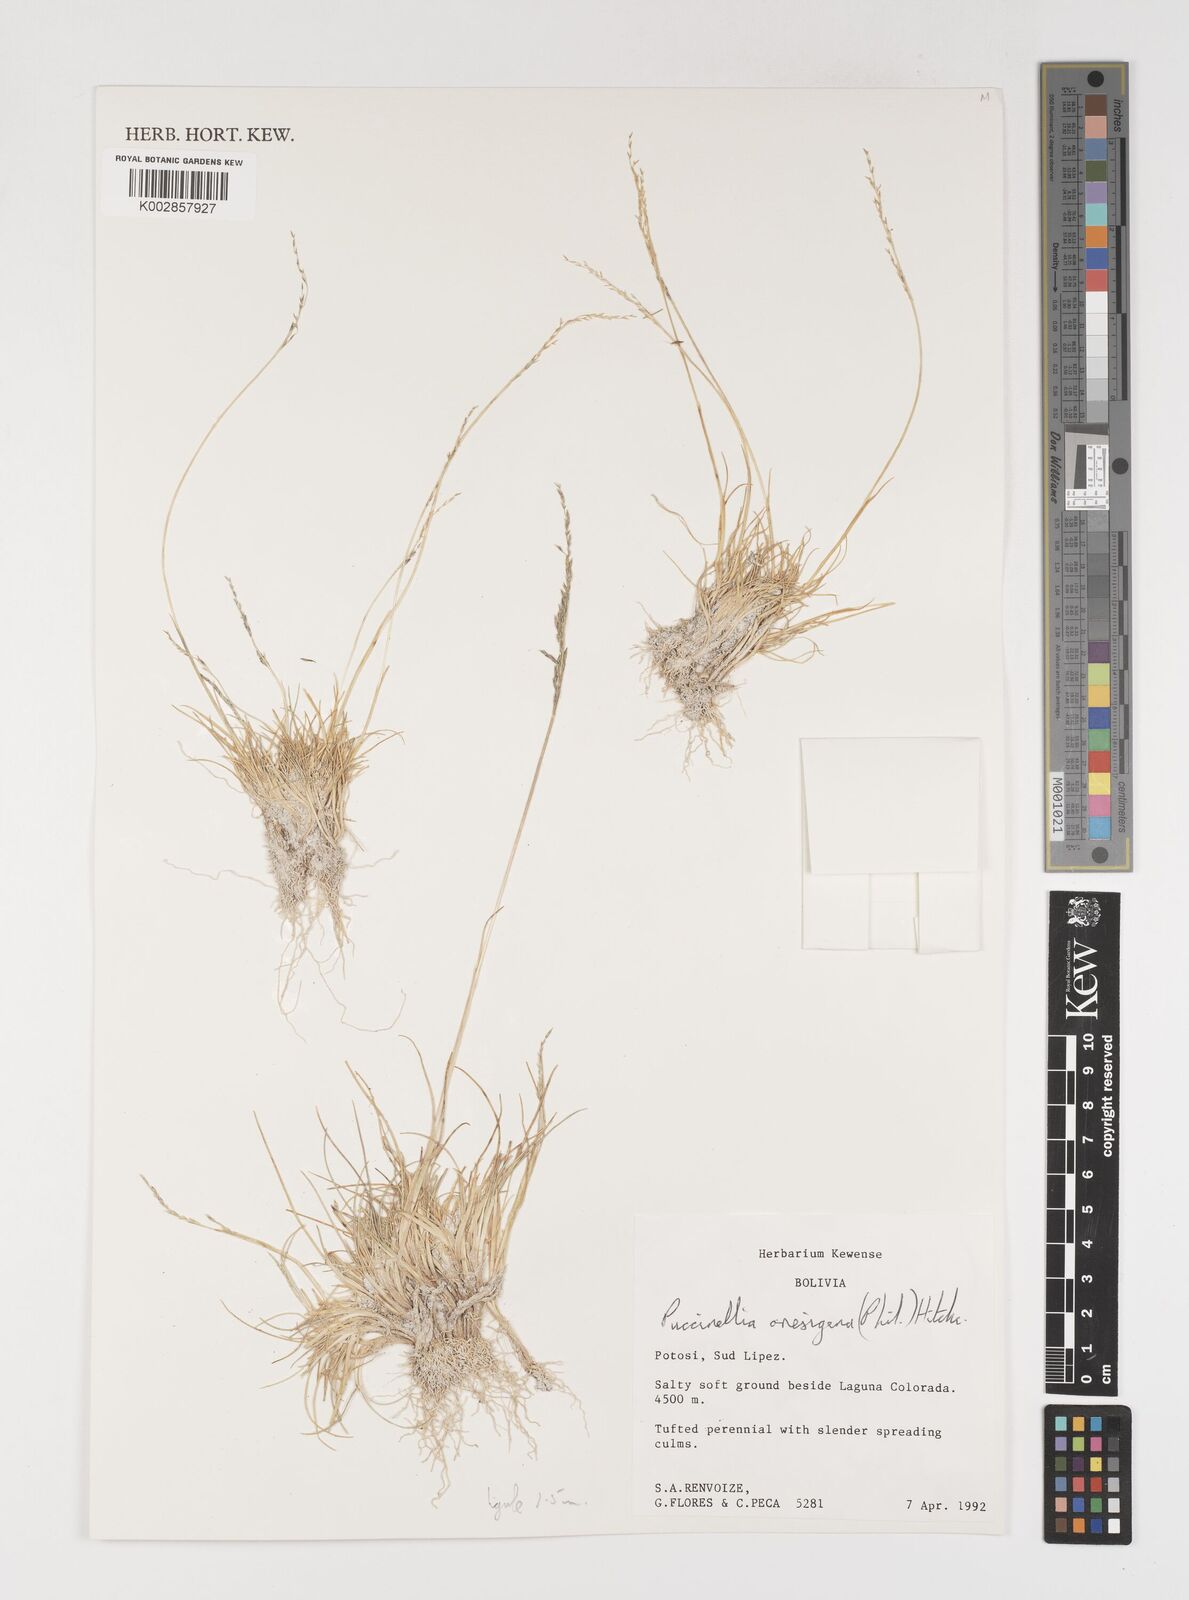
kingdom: Plantae
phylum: Tracheophyta
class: Liliopsida
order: Poales
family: Poaceae
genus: Puccinellia
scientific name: Puccinellia frigida
